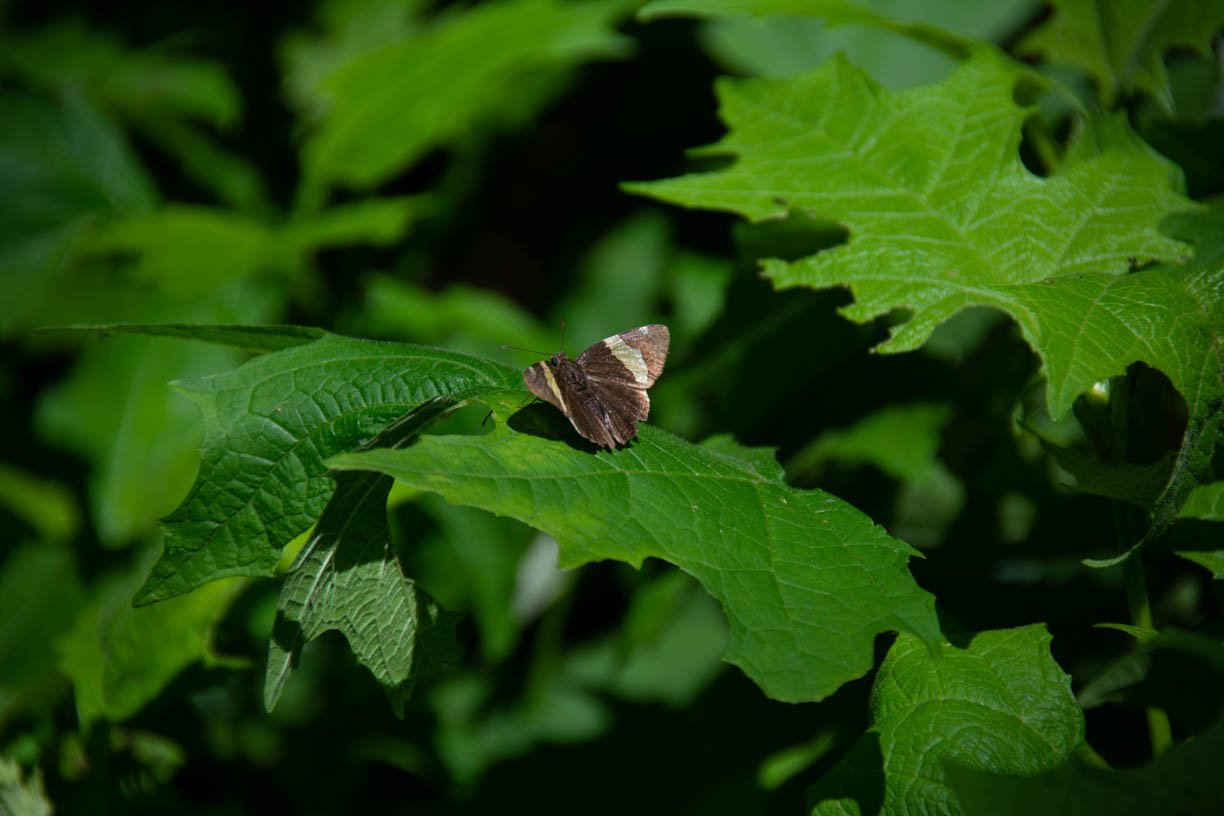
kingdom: Animalia
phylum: Arthropoda
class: Insecta
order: Lepidoptera
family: Hesperiidae
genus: Autochton
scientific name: Autochton cellus
